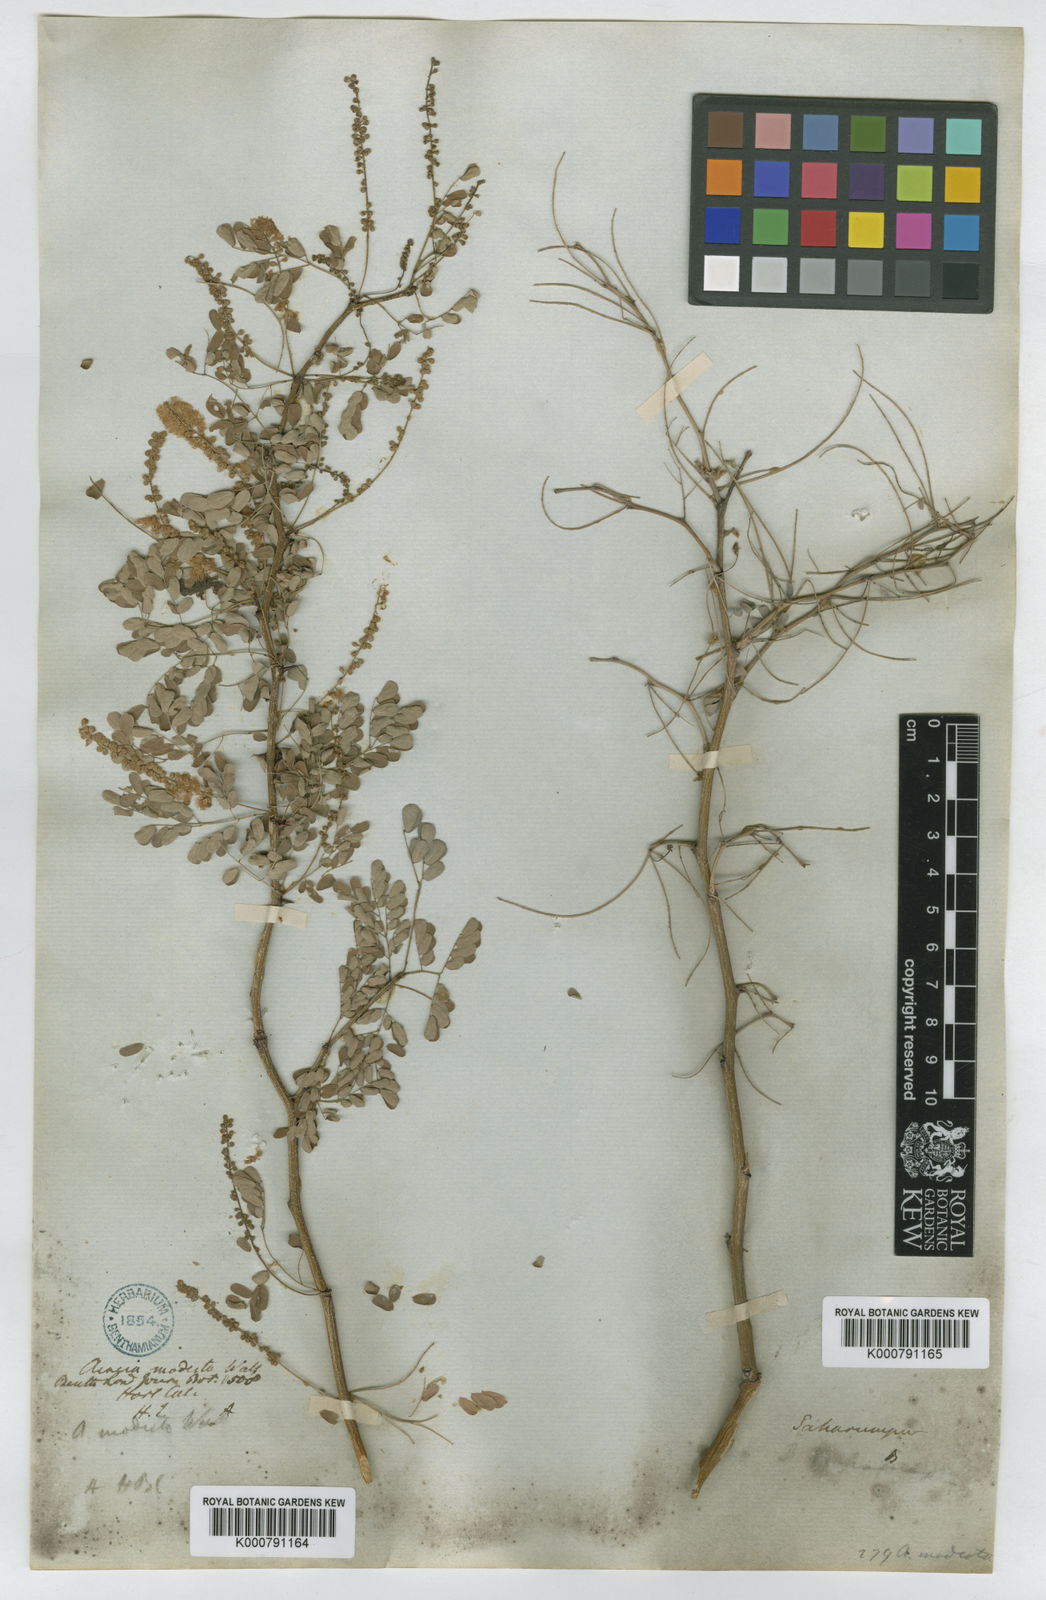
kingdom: Plantae
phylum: Tracheophyta
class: Magnoliopsida
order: Fabales
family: Fabaceae
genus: Senegalia
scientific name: Senegalia modesta
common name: Amritsar-gum
